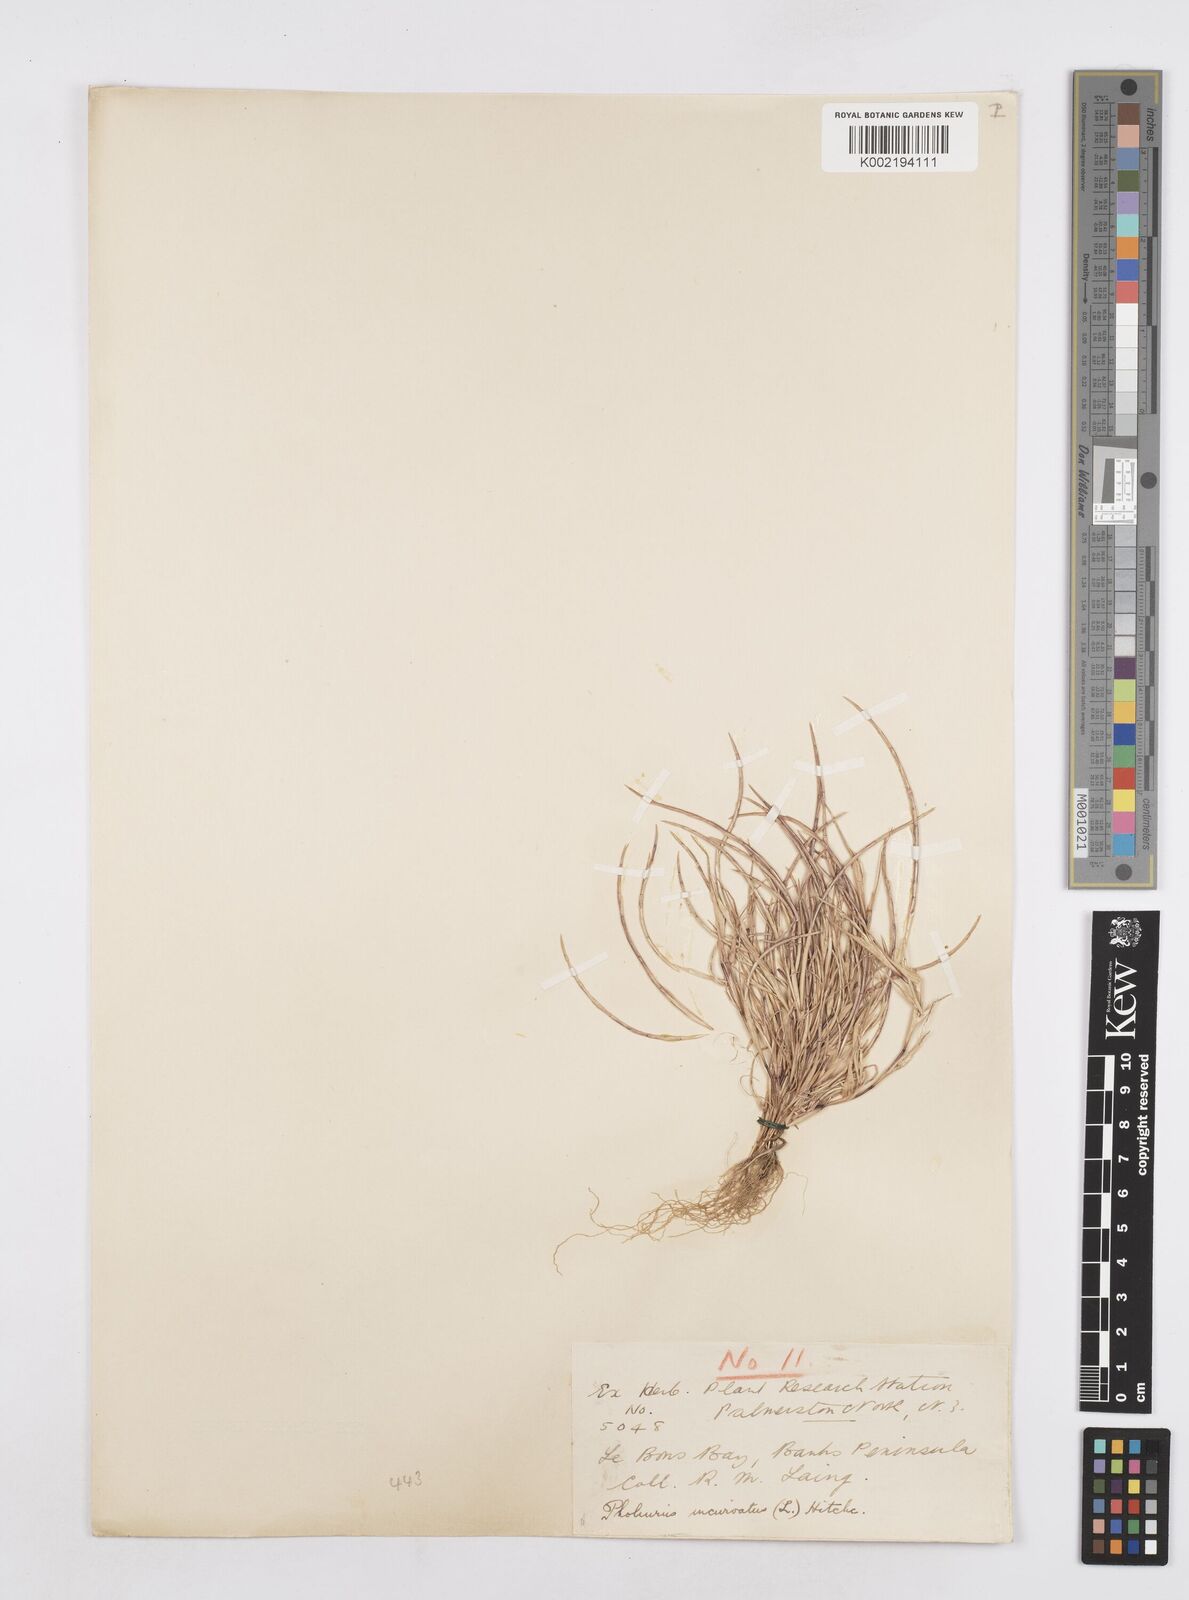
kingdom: Plantae
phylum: Tracheophyta
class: Liliopsida
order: Poales
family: Poaceae
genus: Parapholis
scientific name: Parapholis incurva
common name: Curved sicklegrass
